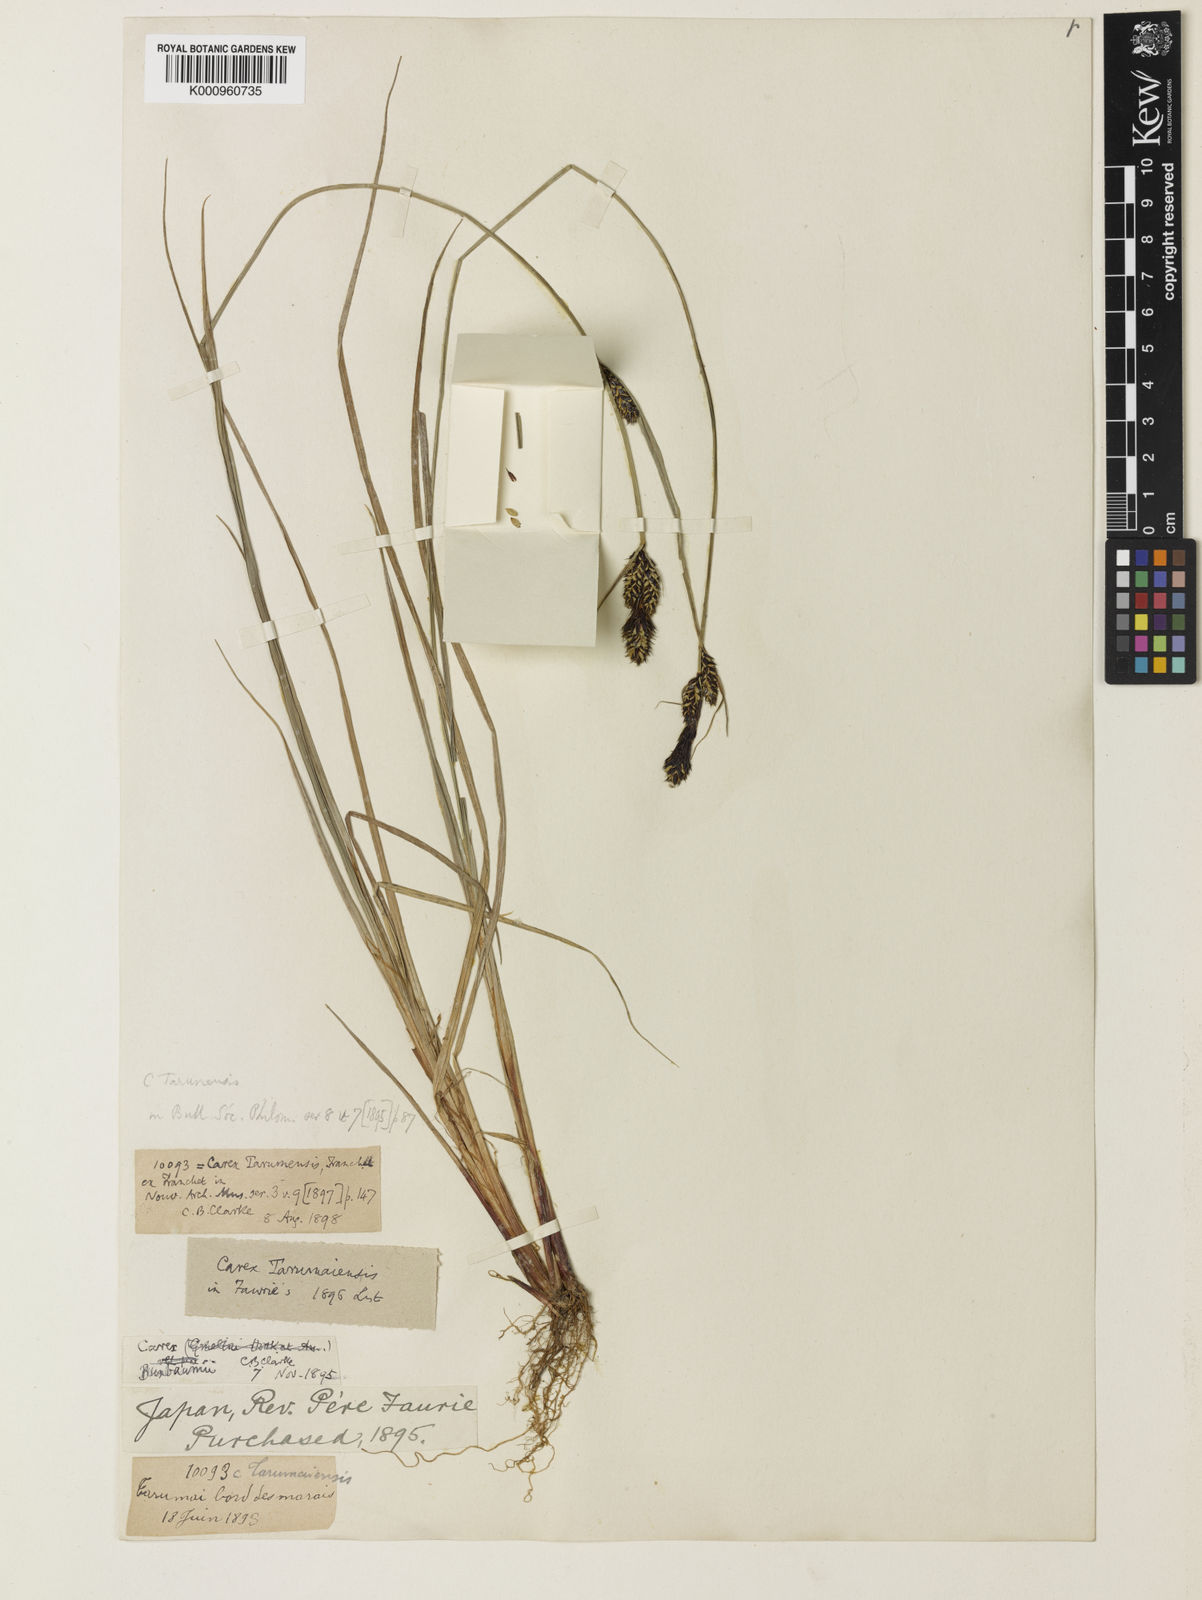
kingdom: Plantae
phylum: Tracheophyta
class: Liliopsida
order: Poales
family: Cyperaceae
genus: Carex
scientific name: Carex buxbaumii
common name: Club sedge
